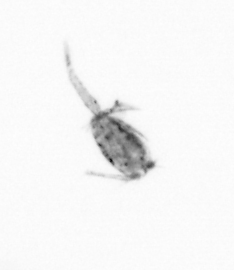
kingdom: Animalia
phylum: Arthropoda
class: Copepoda
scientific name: Copepoda
